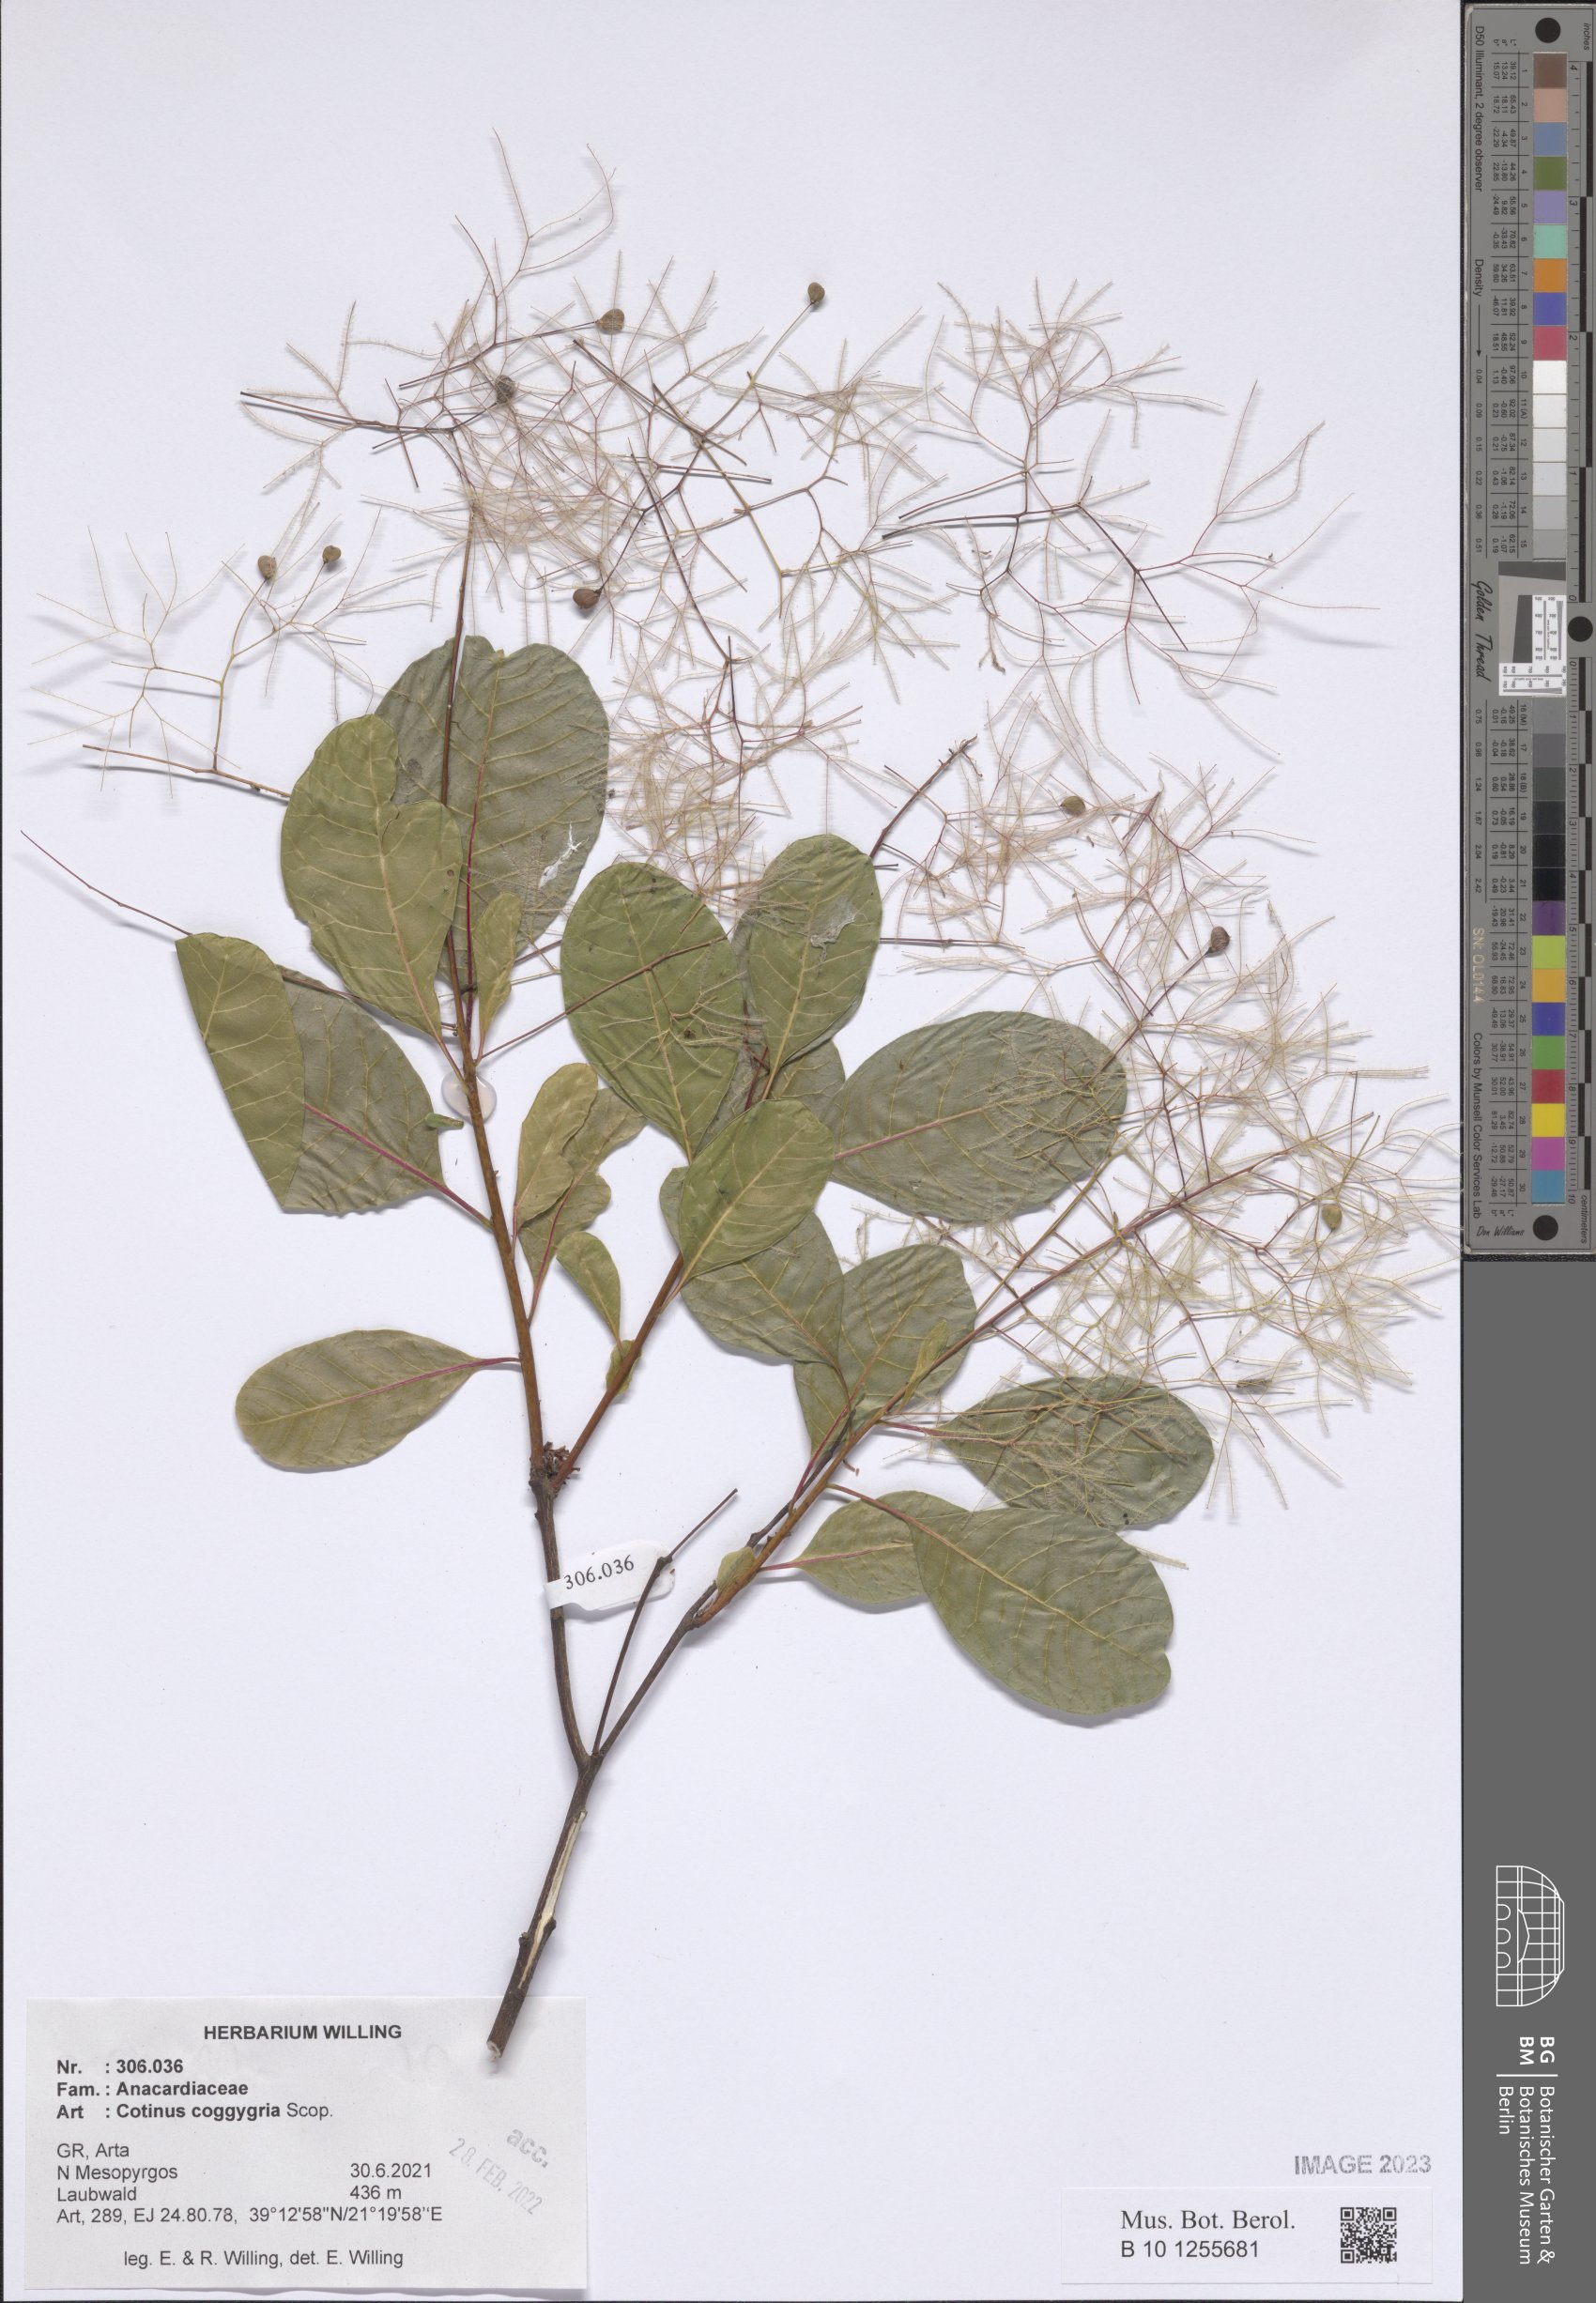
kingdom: Plantae
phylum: Tracheophyta
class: Magnoliopsida
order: Sapindales
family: Anacardiaceae
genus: Cotinus
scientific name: Cotinus coggygria
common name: Smoke-tree
